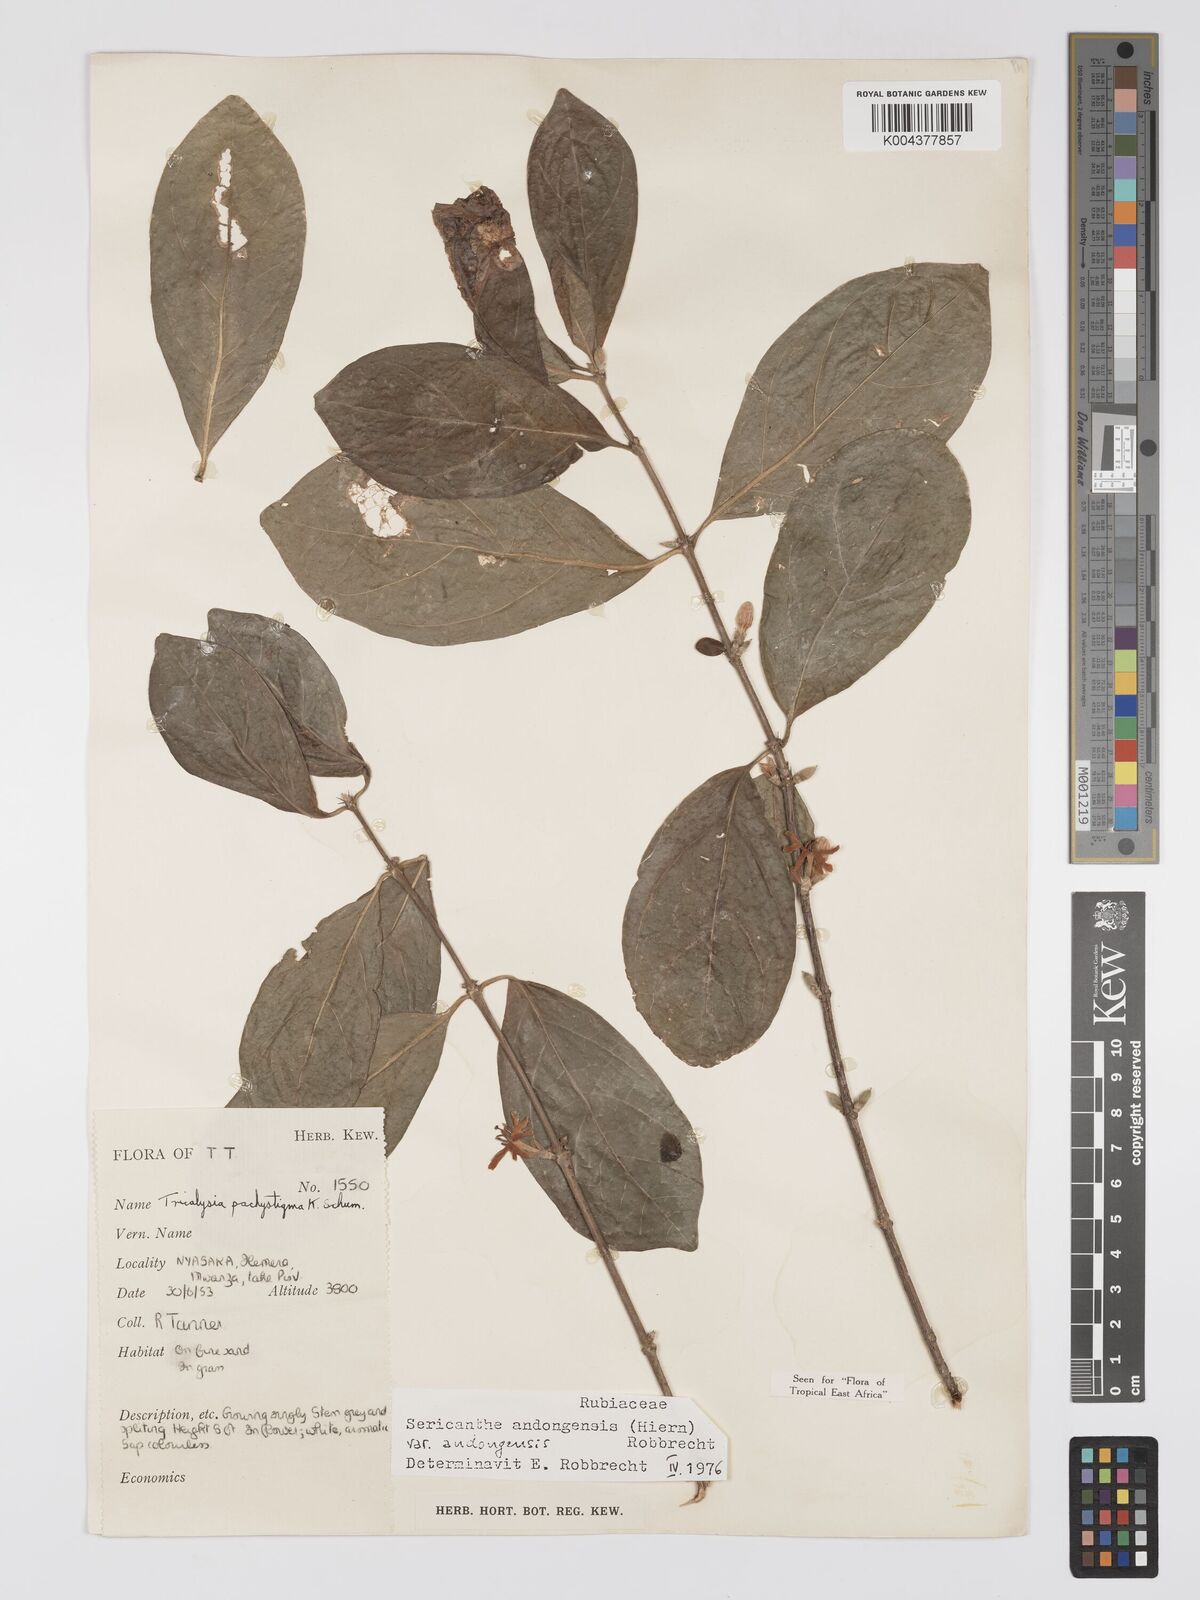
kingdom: Plantae
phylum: Tracheophyta
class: Magnoliopsida
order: Gentianales
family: Rubiaceae
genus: Sericanthe
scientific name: Sericanthe andongensis
